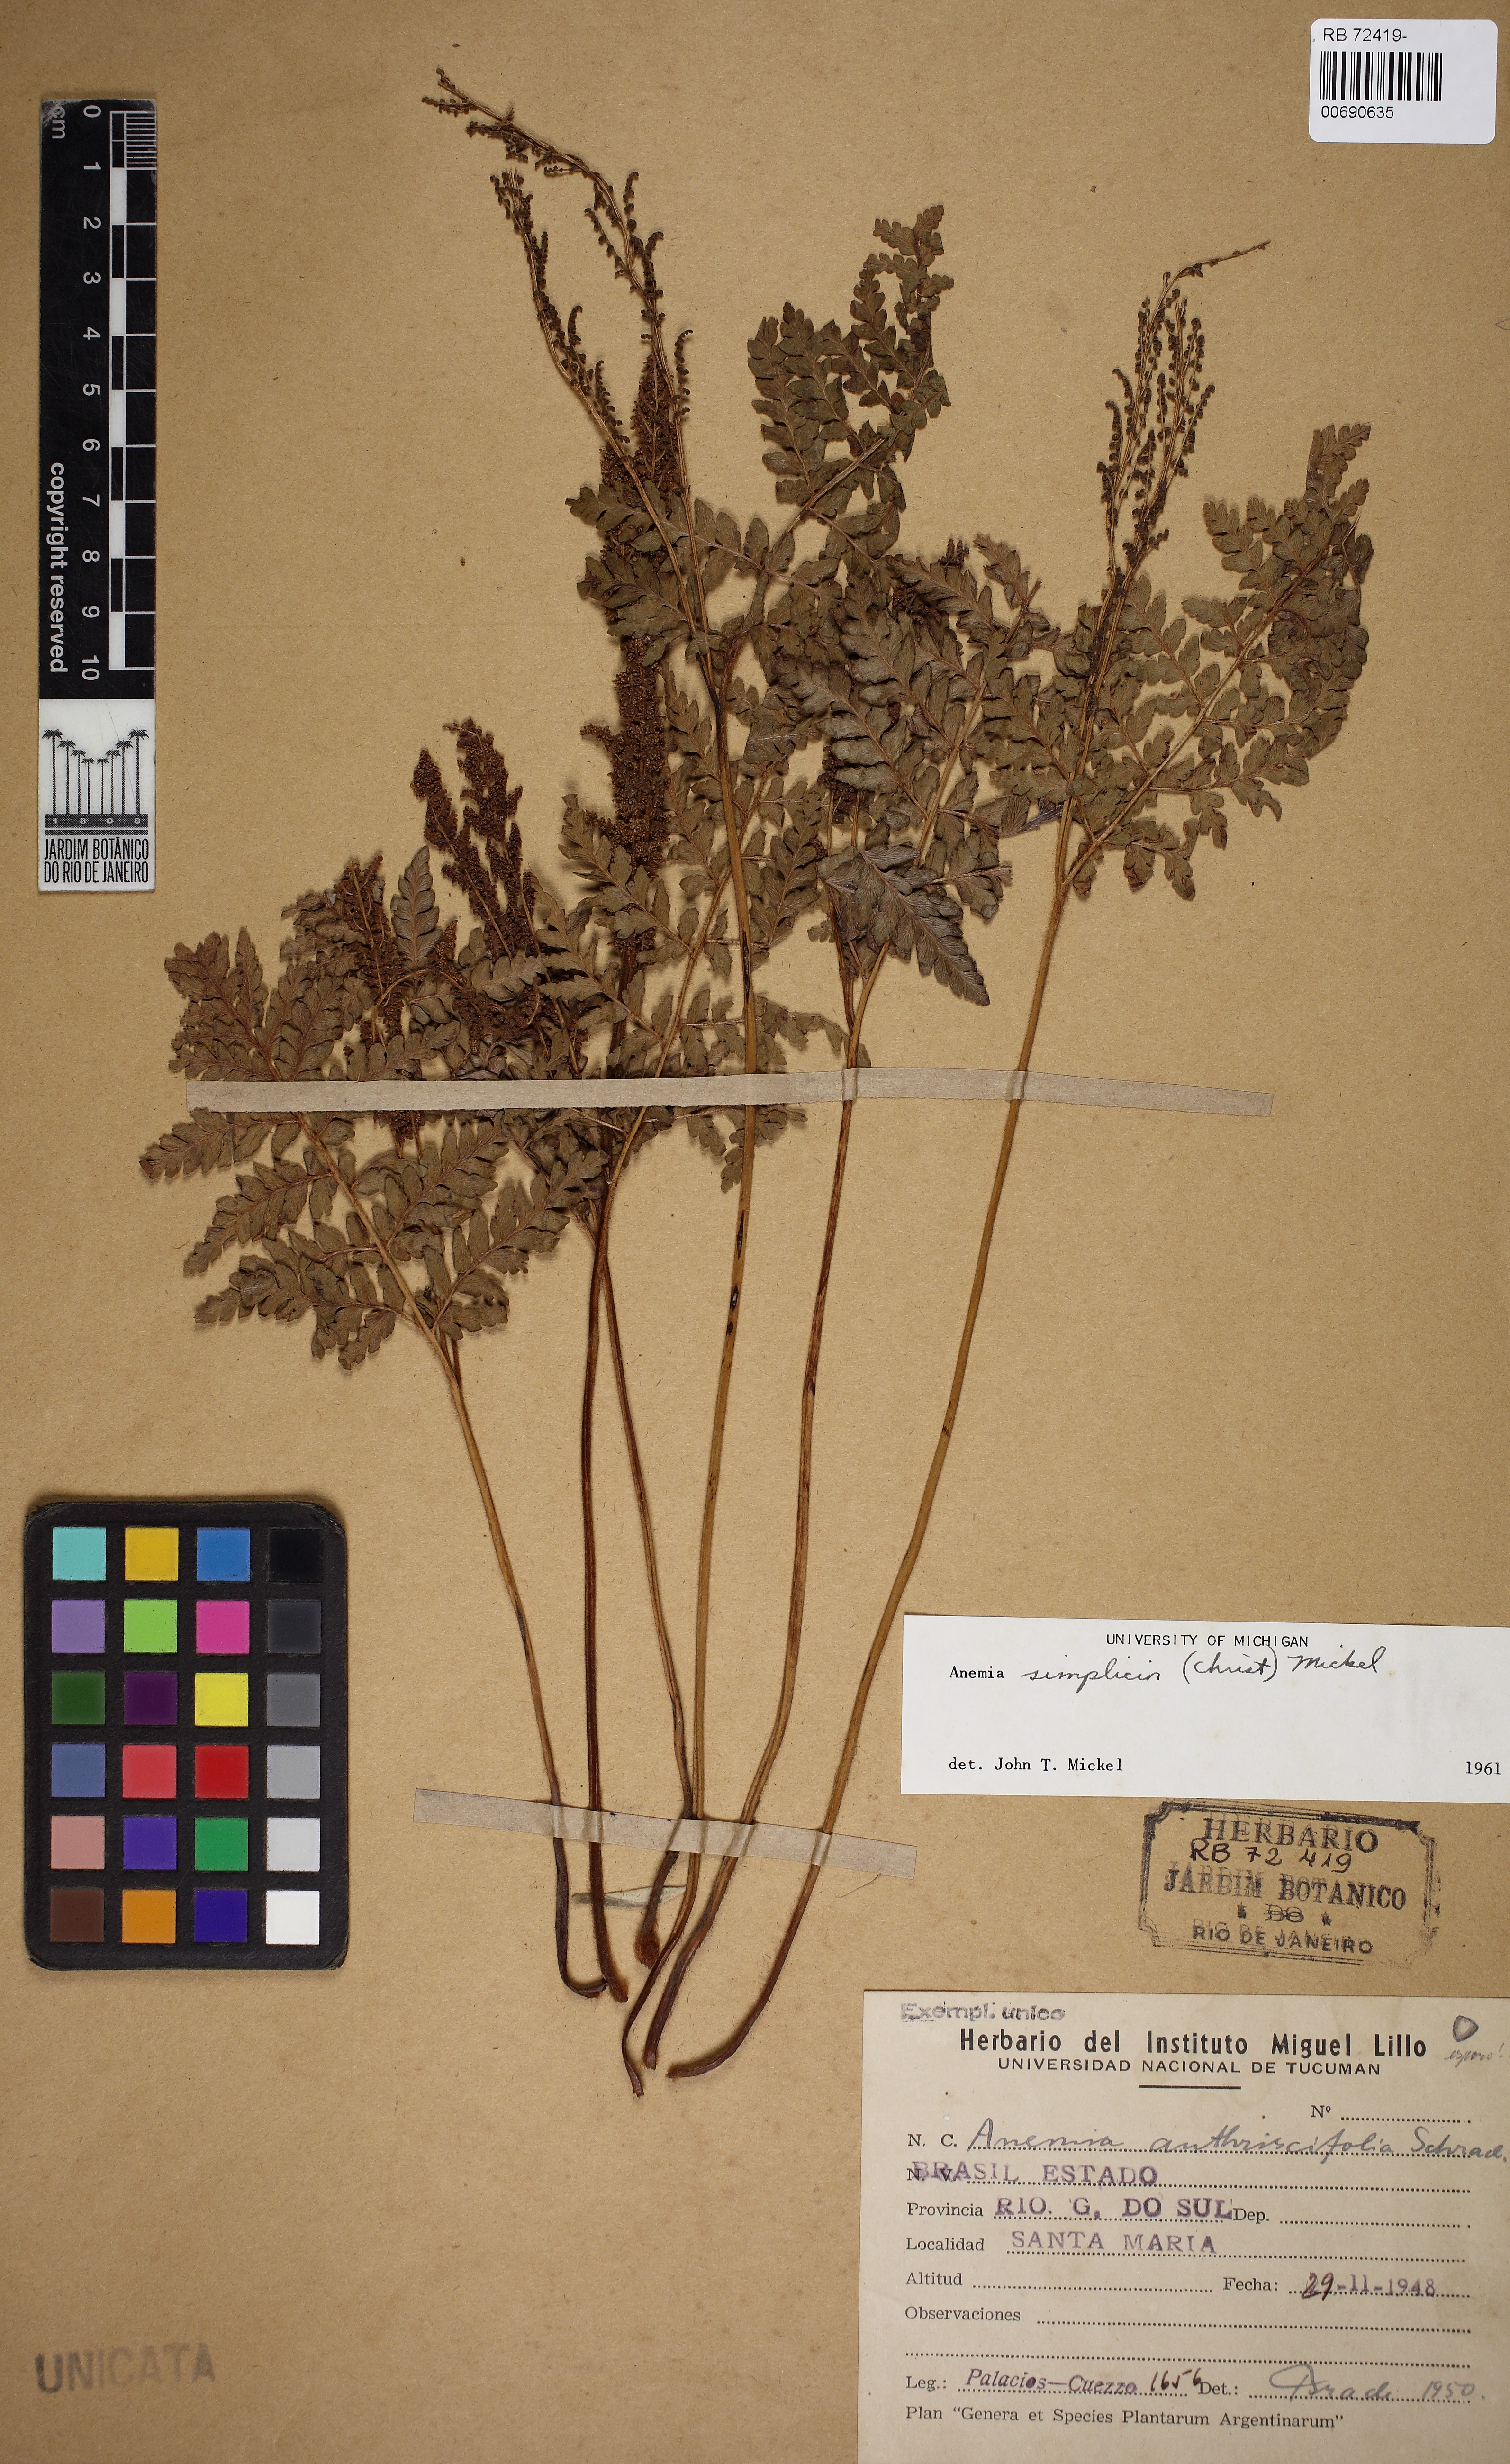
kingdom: Plantae
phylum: Tracheophyta
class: Polypodiopsida
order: Schizaeales
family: Anemiaceae
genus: Anemia
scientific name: Anemia simplicior
